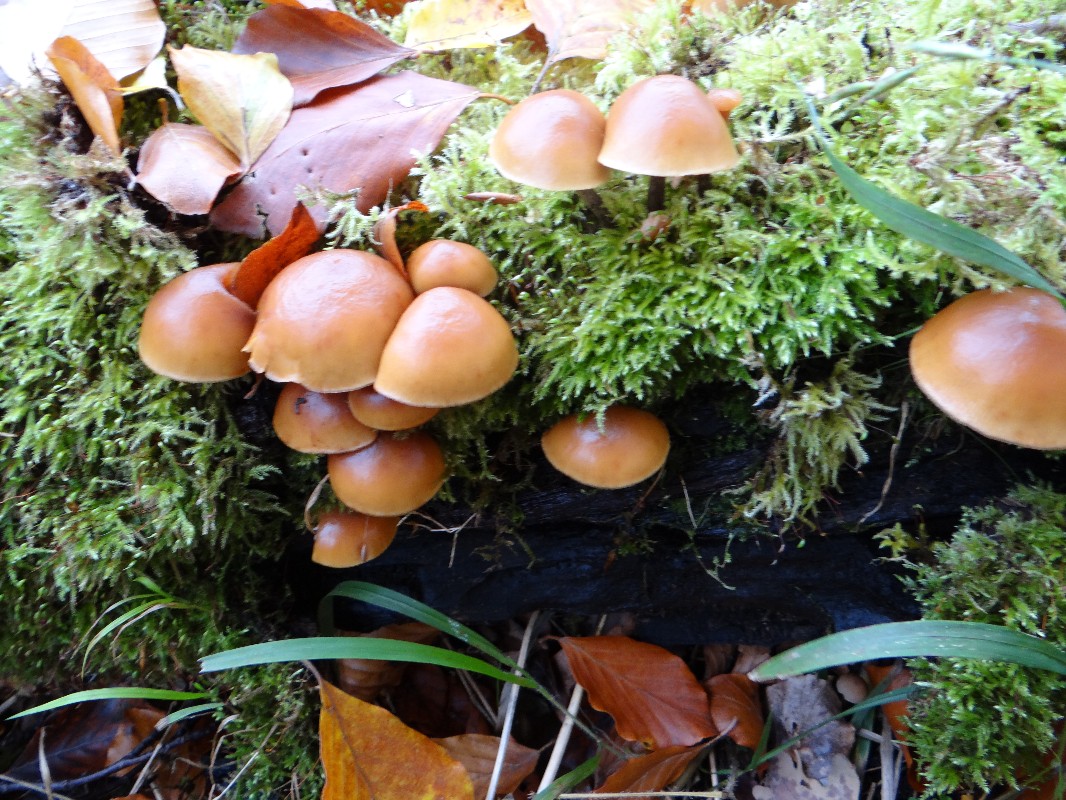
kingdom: Fungi
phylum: Basidiomycota
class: Agaricomycetes
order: Agaricales
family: Hymenogastraceae
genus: Galerina
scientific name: Galerina marginata
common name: randbæltet hjelmhat
